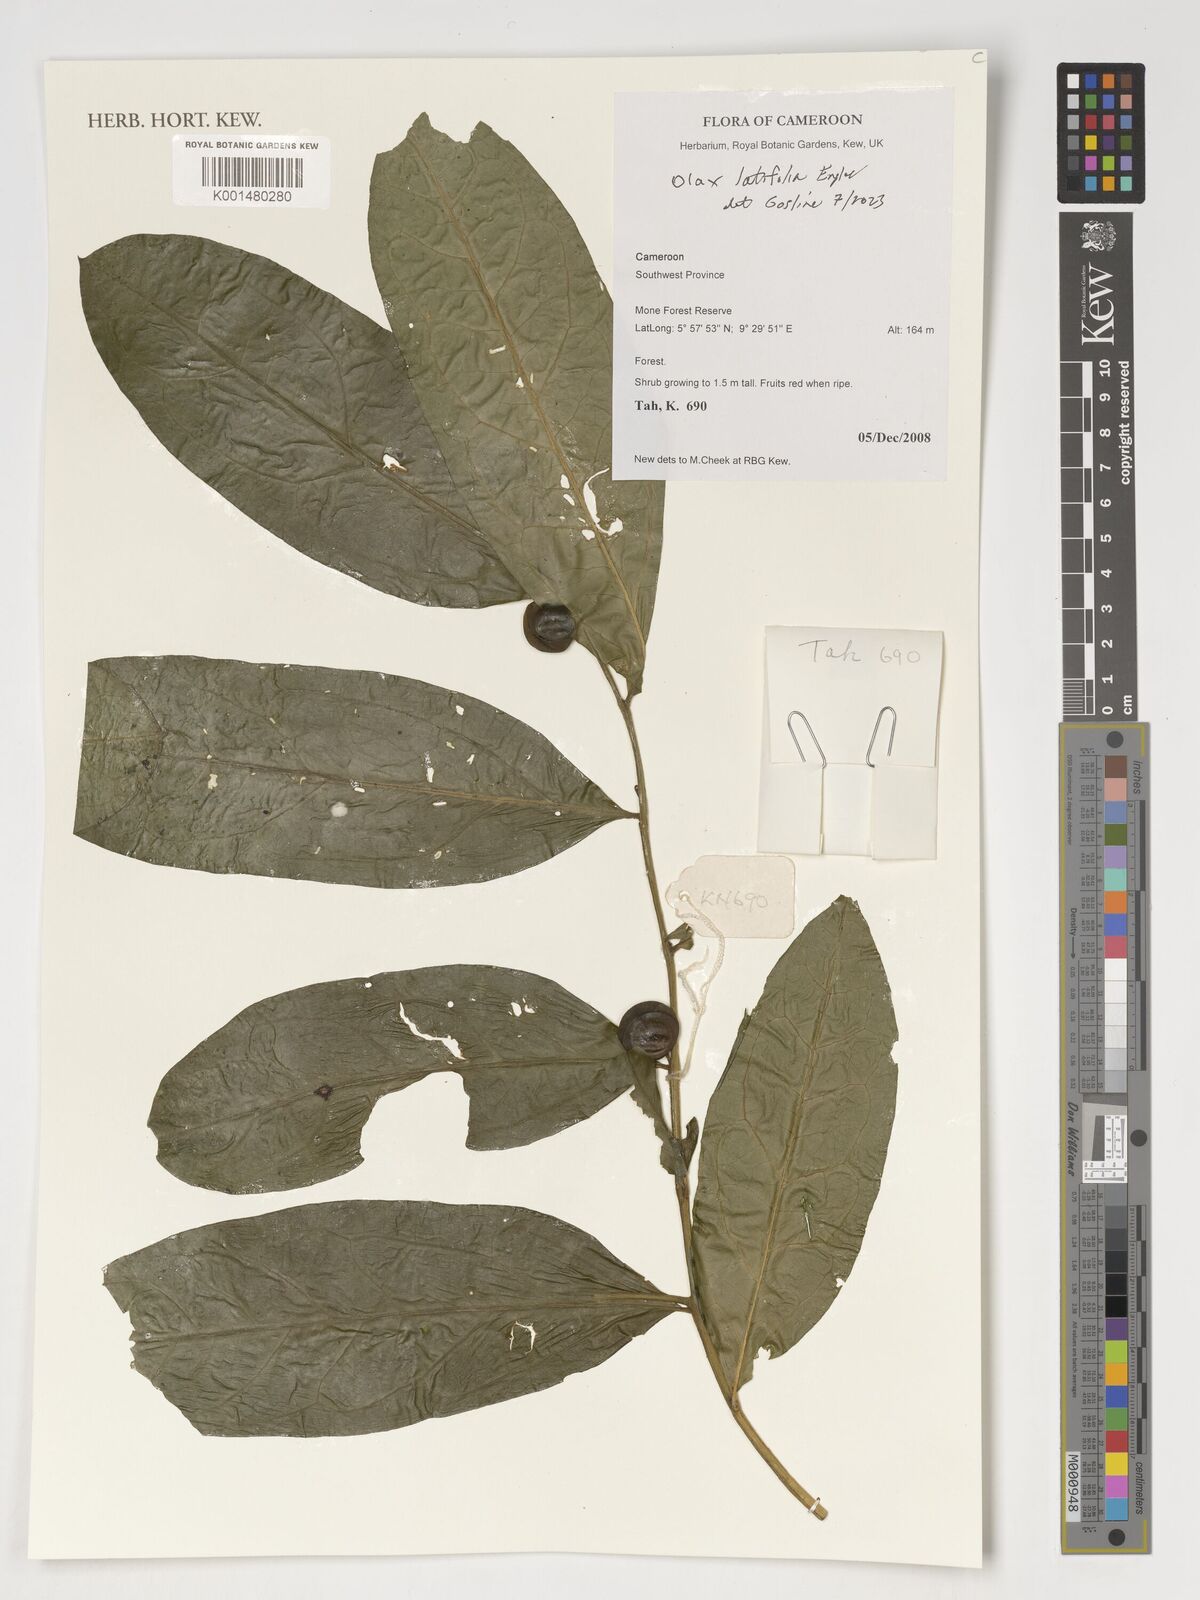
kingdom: Plantae
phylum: Tracheophyta
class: Magnoliopsida
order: Santalales
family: Olacaceae
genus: Olax
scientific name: Olax latifolia
